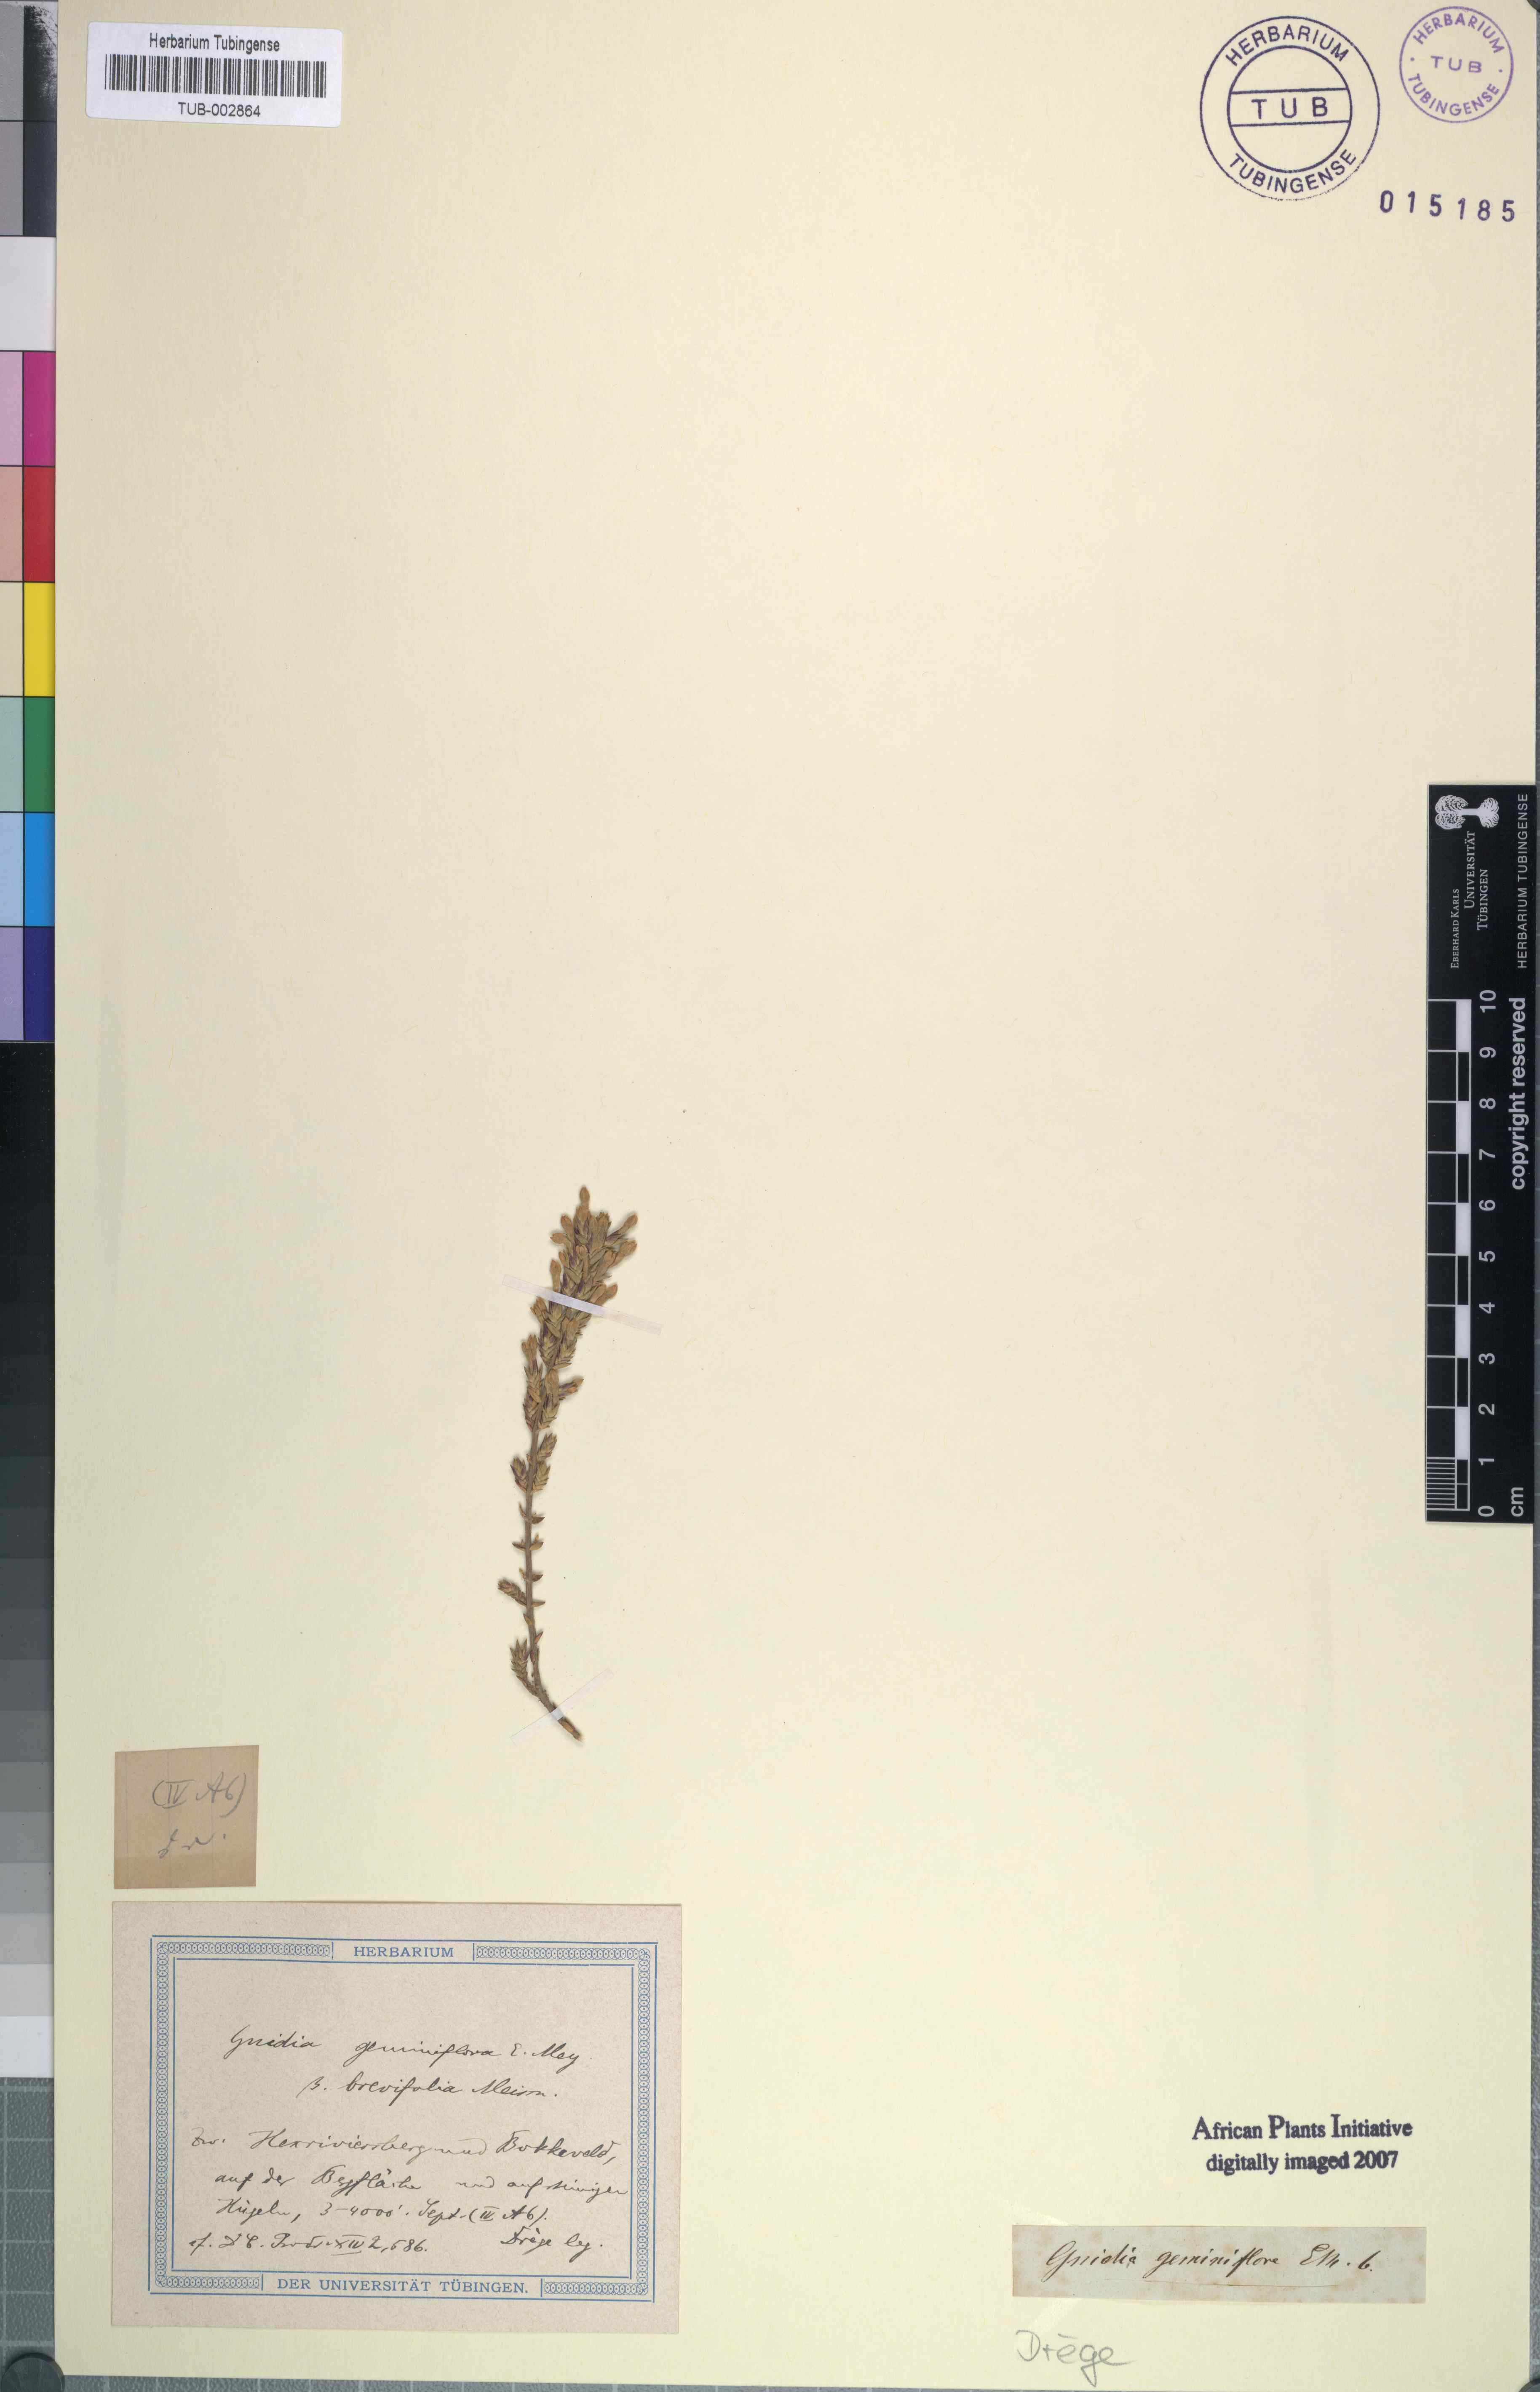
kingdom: Plantae
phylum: Tracheophyta
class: Magnoliopsida
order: Malvales
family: Thymelaeaceae
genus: Gnidia
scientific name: Gnidia geminiflora
